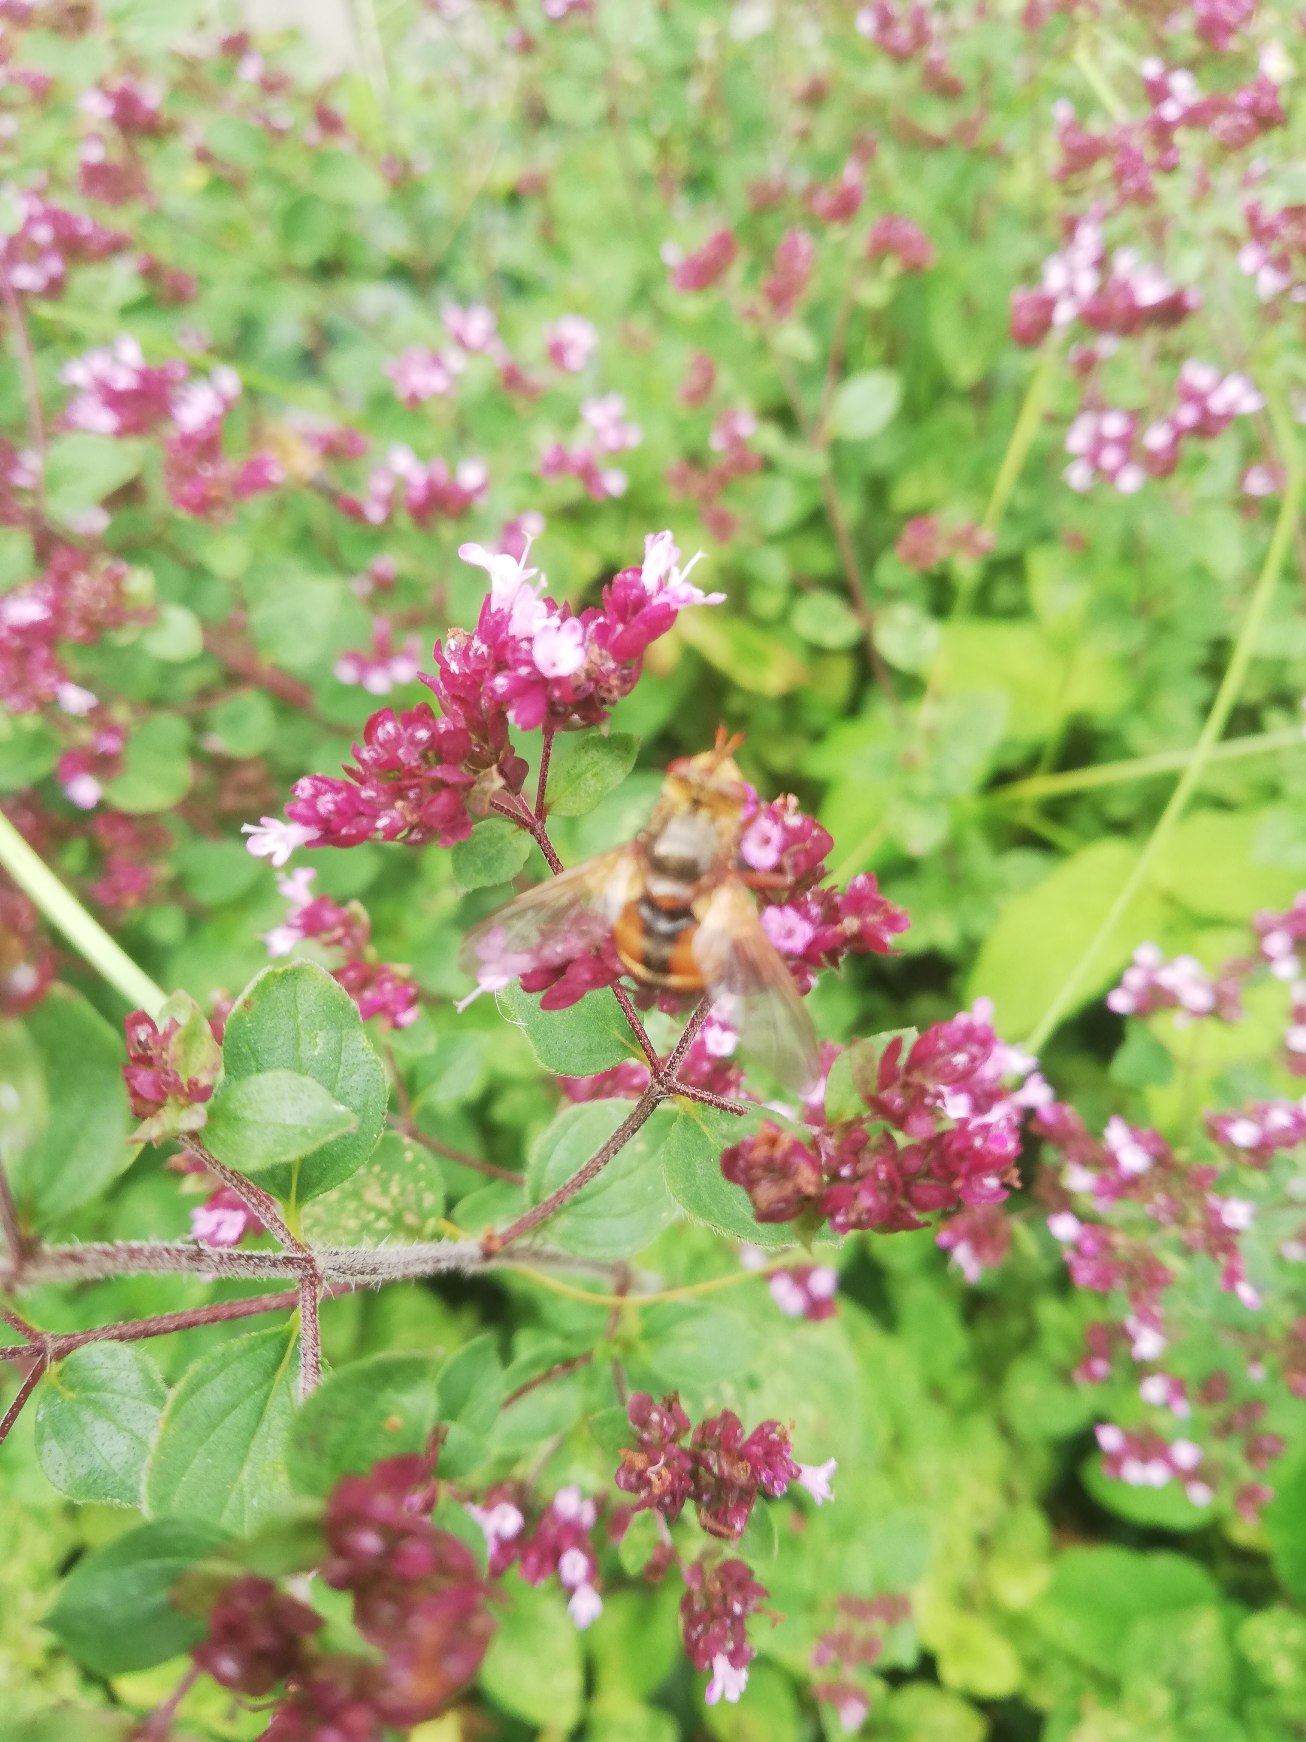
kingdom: Animalia
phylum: Arthropoda
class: Insecta
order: Diptera
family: Tachinidae
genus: Tachina
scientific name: Tachina fera
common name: Mellemfluen oskar
